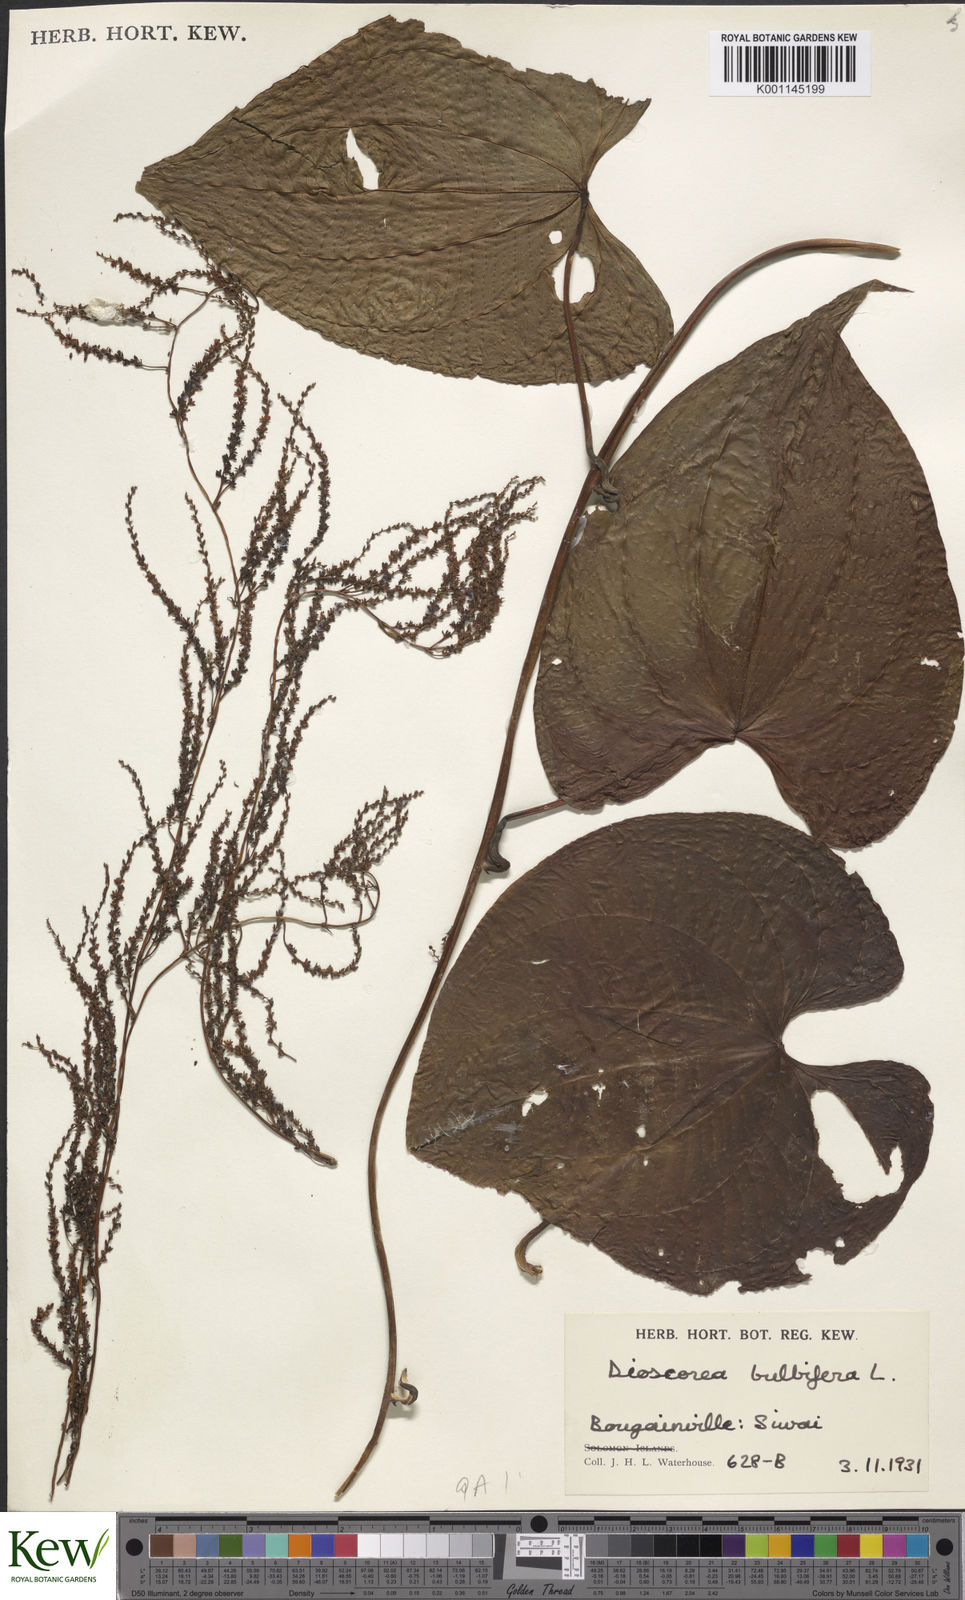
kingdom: Plantae
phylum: Tracheophyta
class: Liliopsida
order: Dioscoreales
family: Dioscoreaceae
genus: Dioscorea
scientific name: Dioscorea bulbifera
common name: Air yam
